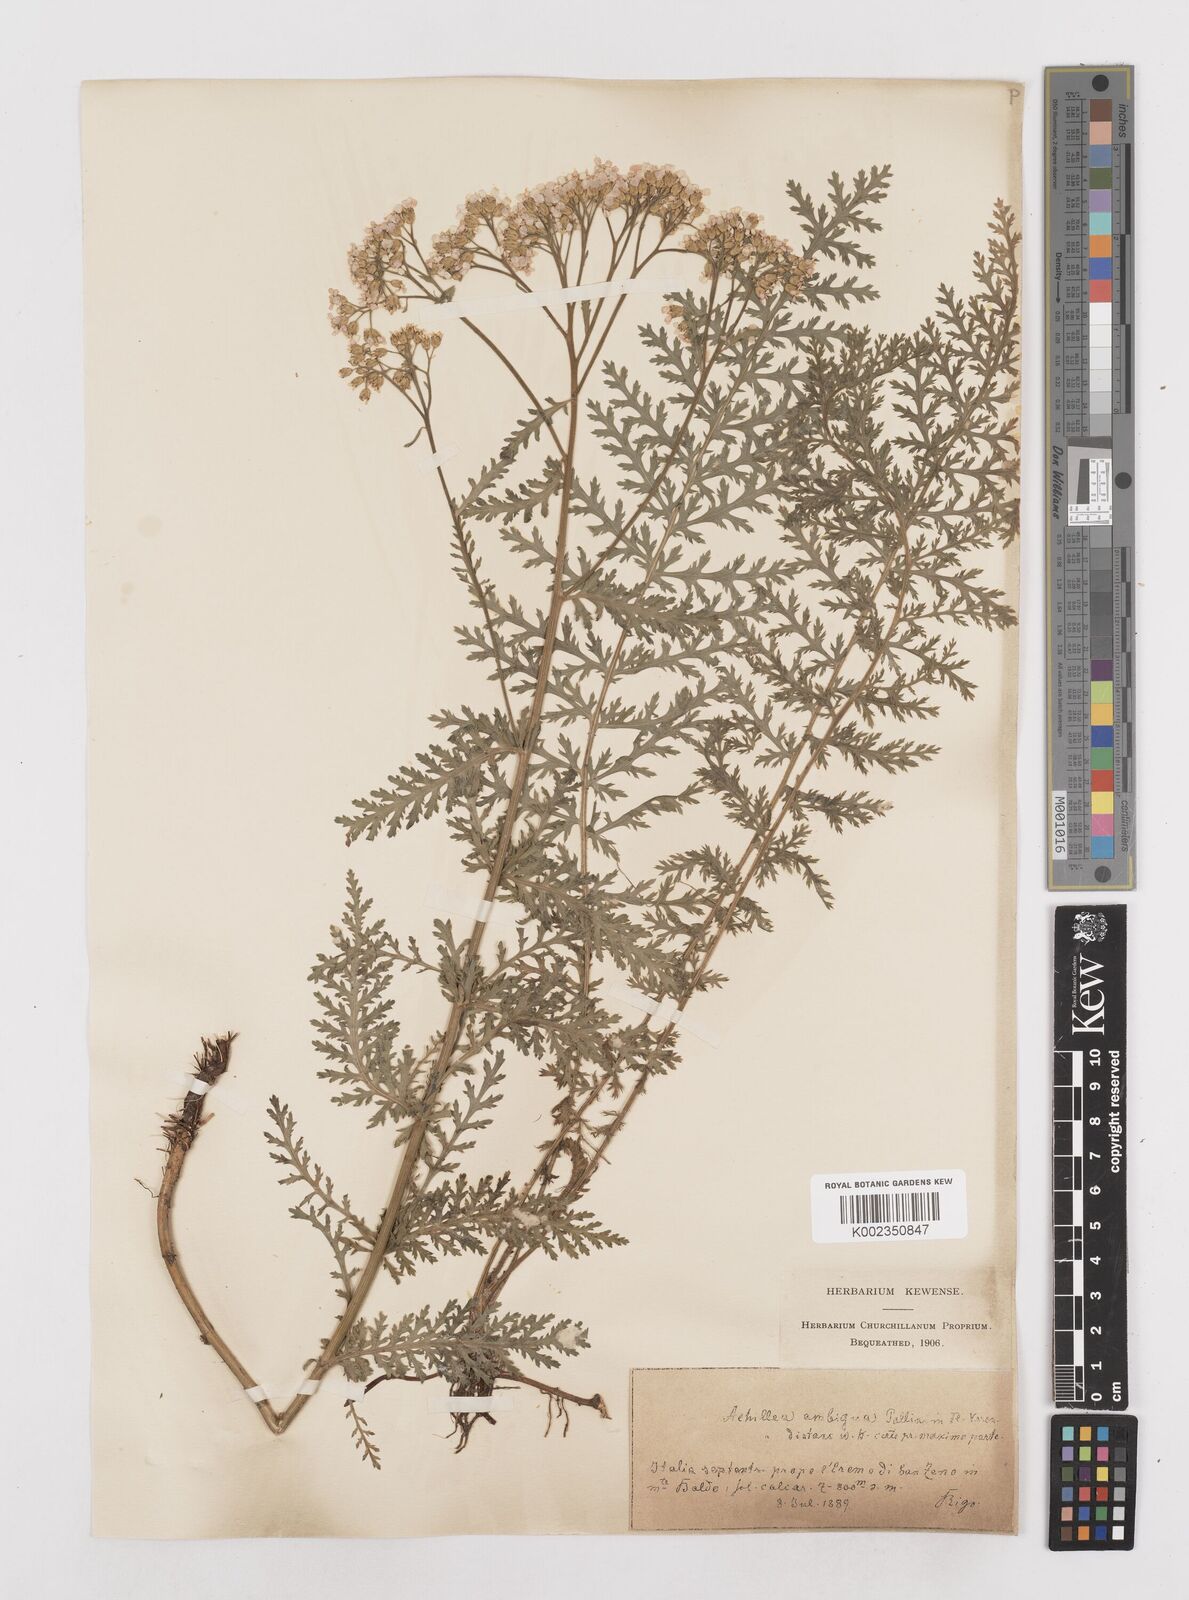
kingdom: Plantae
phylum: Tracheophyta
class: Magnoliopsida
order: Asterales
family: Asteraceae
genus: Achillea
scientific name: Achillea distans
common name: Tall yarrow
